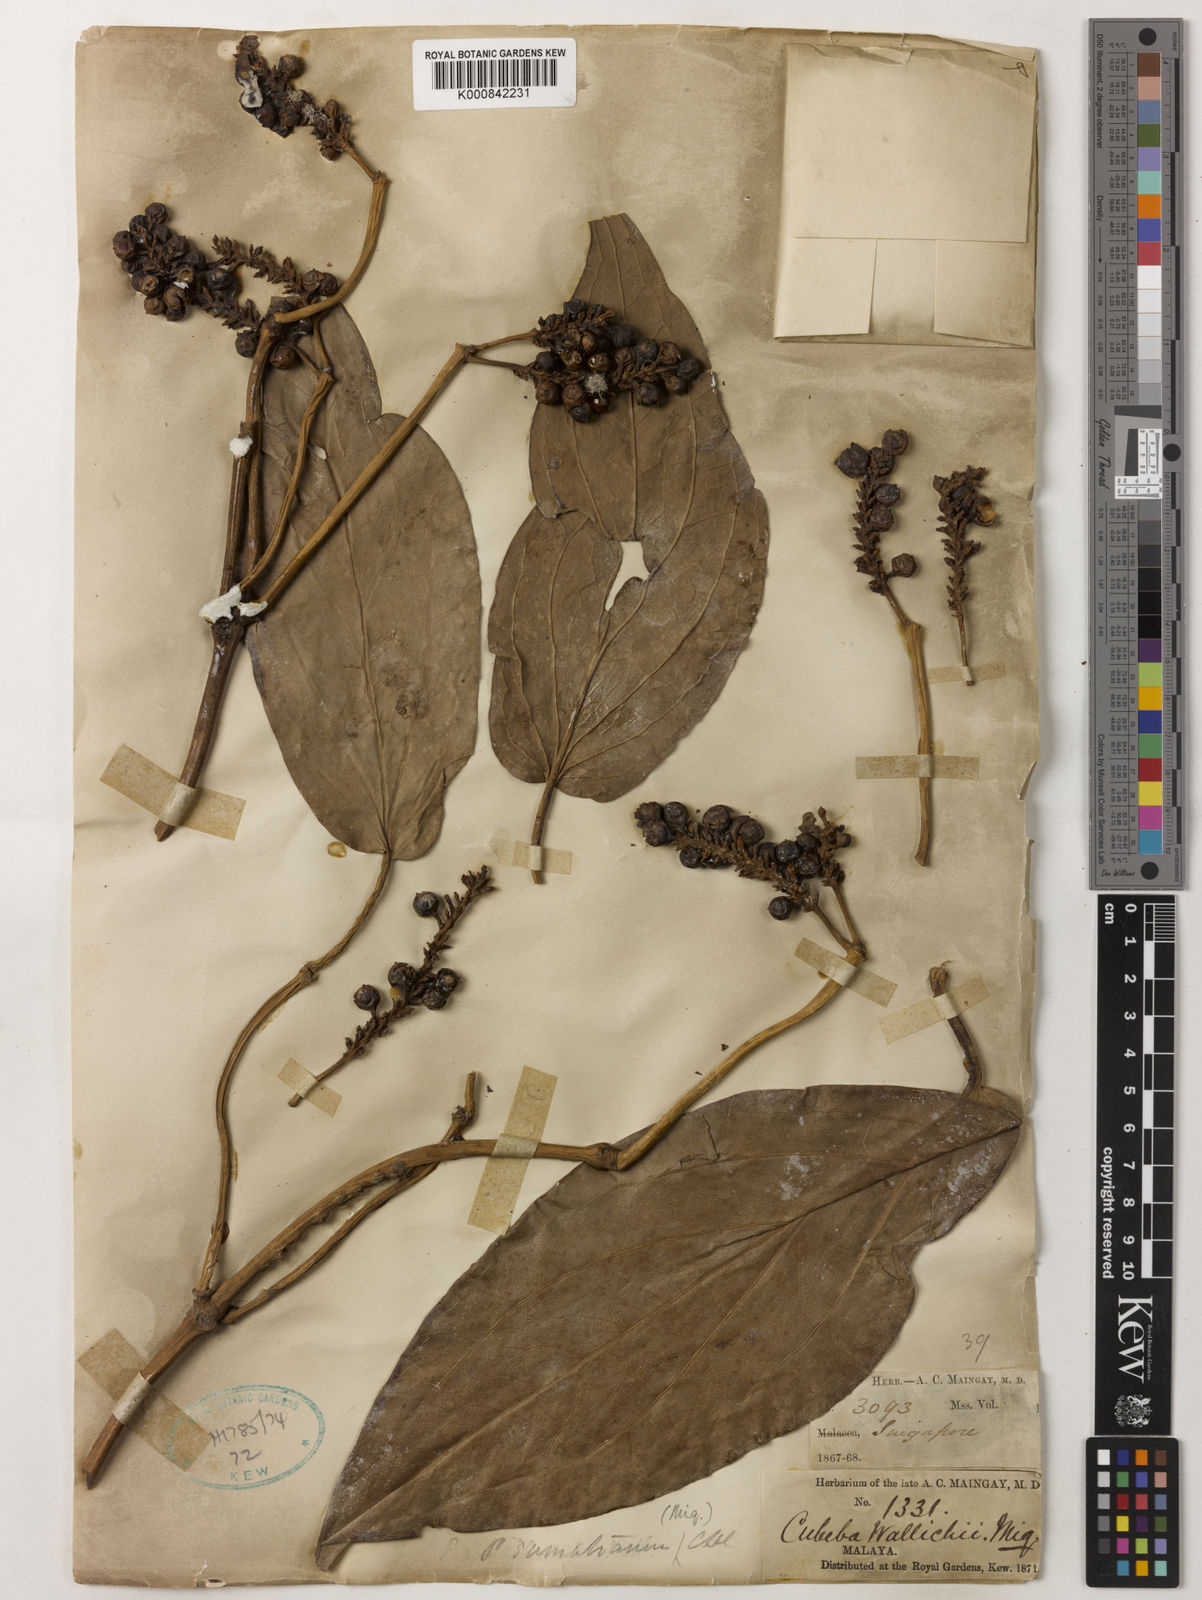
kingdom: Plantae
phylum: Tracheophyta
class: Magnoliopsida
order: Piperales
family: Piperaceae
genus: Piper
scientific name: Piper ribesioides
